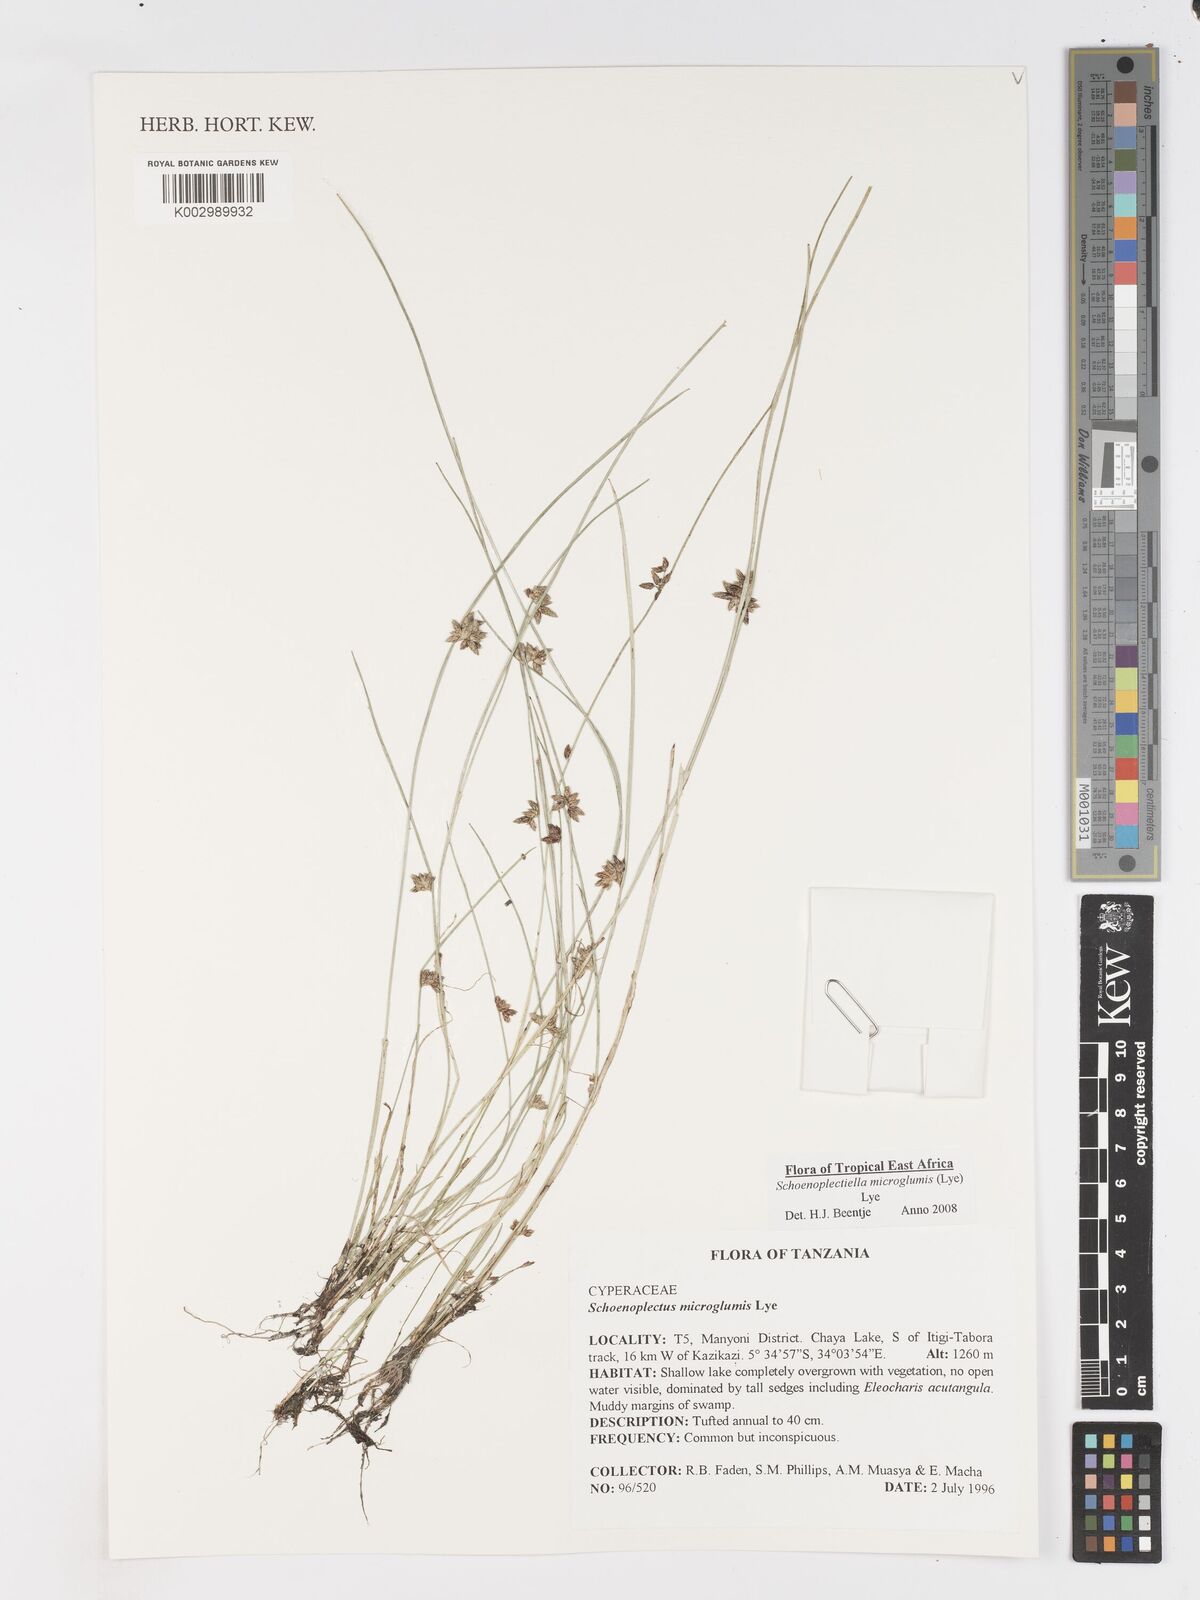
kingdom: Plantae
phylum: Tracheophyta
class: Liliopsida
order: Poales
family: Cyperaceae
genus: Schoenoplectiella
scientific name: Schoenoplectiella microglumis
